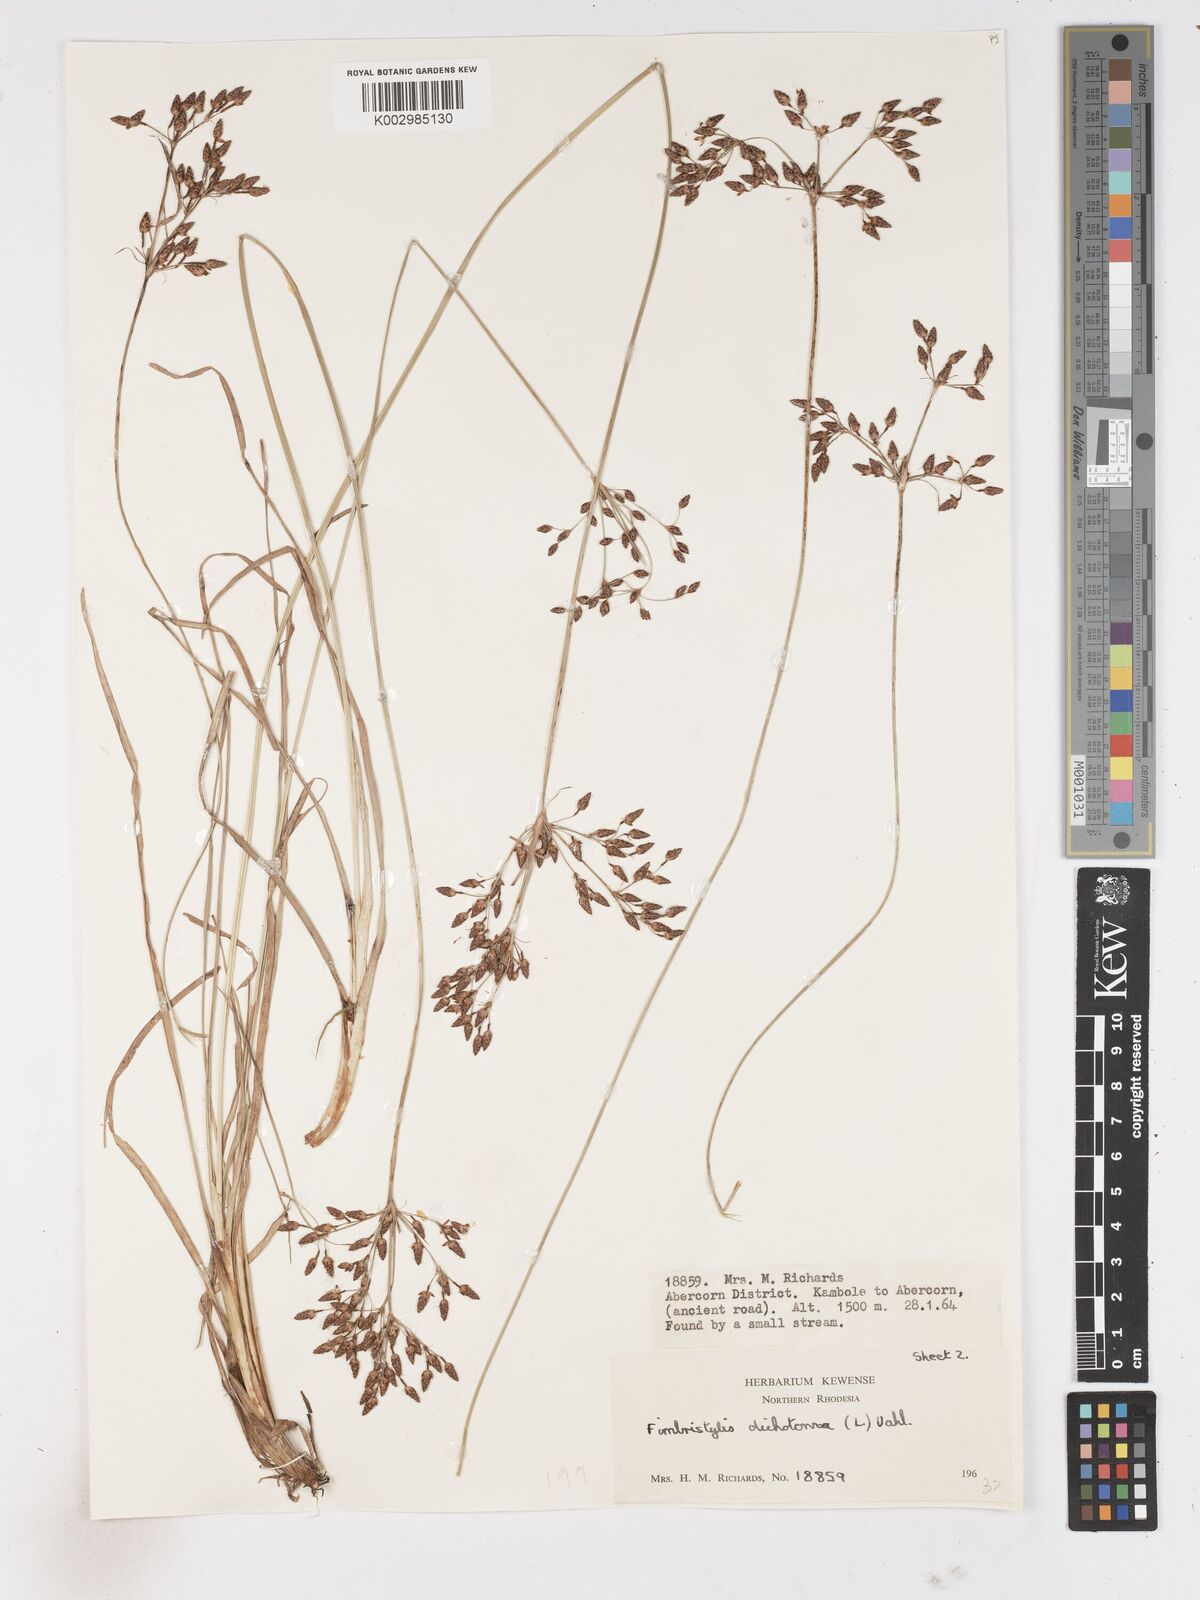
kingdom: Plantae
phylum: Tracheophyta
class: Liliopsida
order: Poales
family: Cyperaceae
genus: Fimbristylis
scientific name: Fimbristylis dichotoma
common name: Forked fimbry
